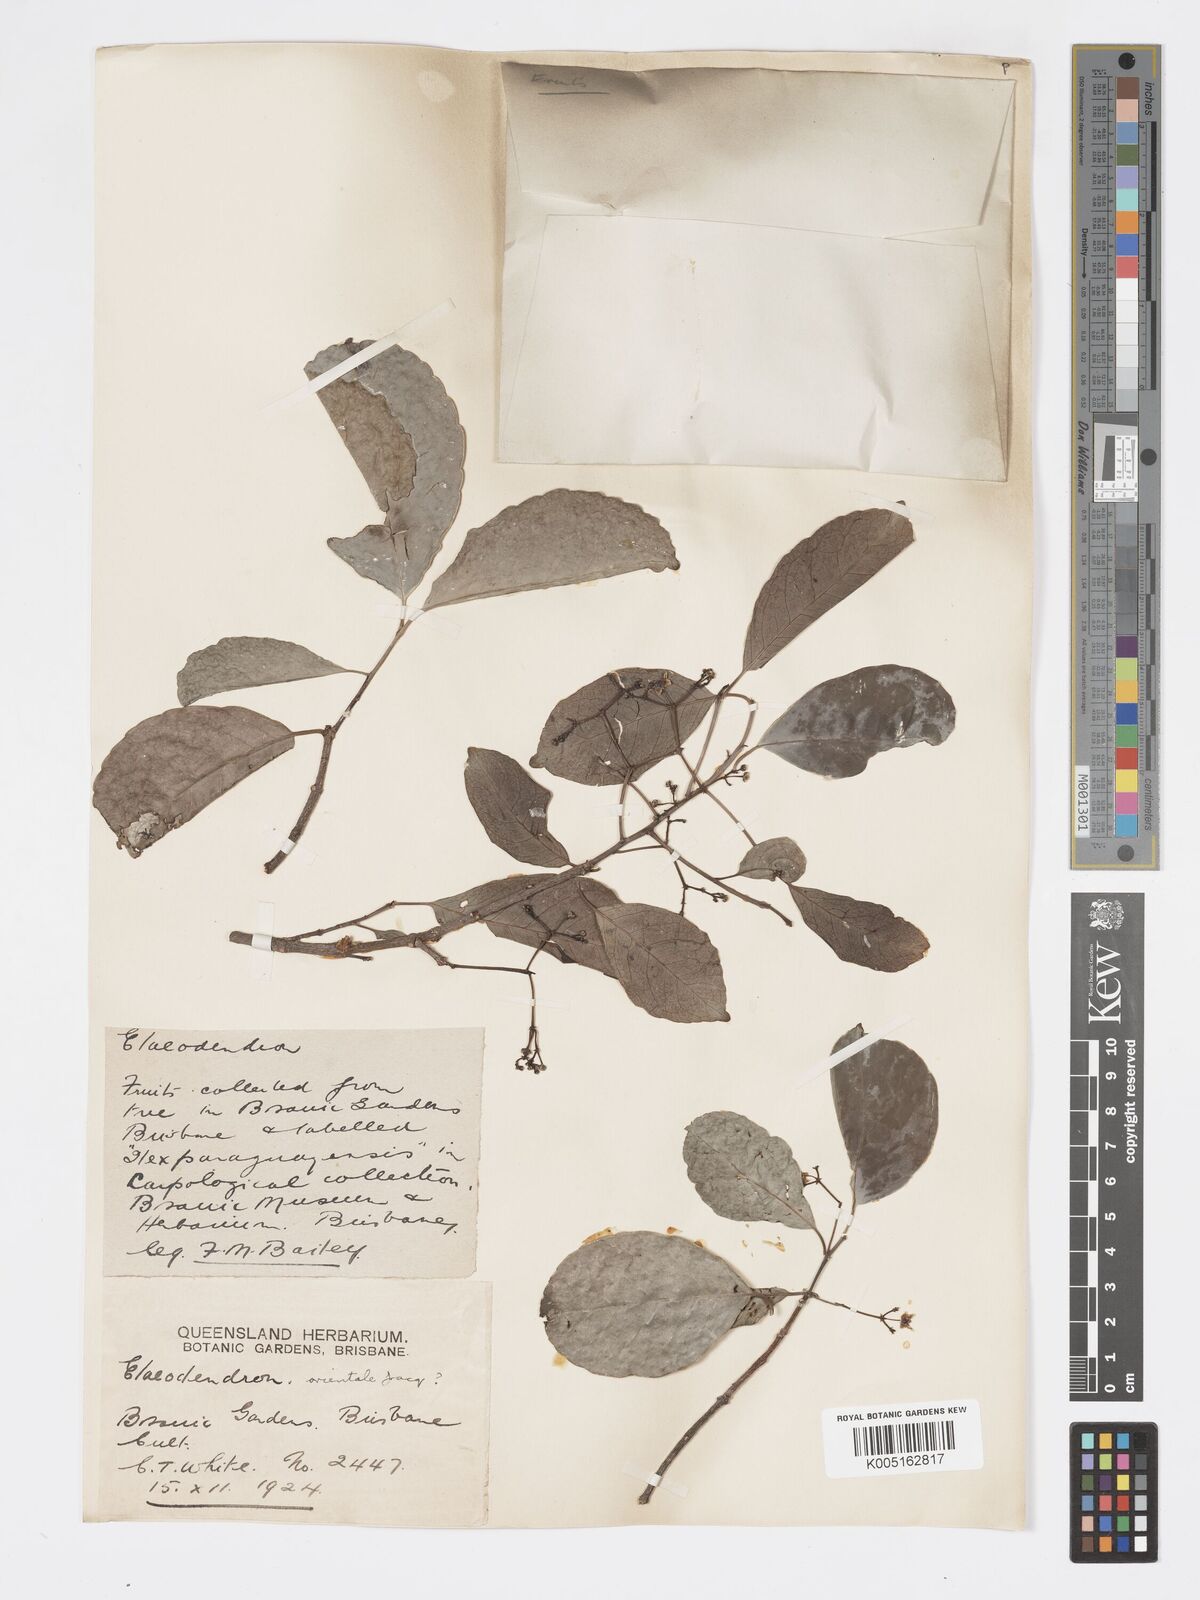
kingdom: Plantae
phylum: Tracheophyta
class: Magnoliopsida
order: Celastrales
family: Celastraceae
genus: Elaeodendron
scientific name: Elaeodendron orientale
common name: False olive
